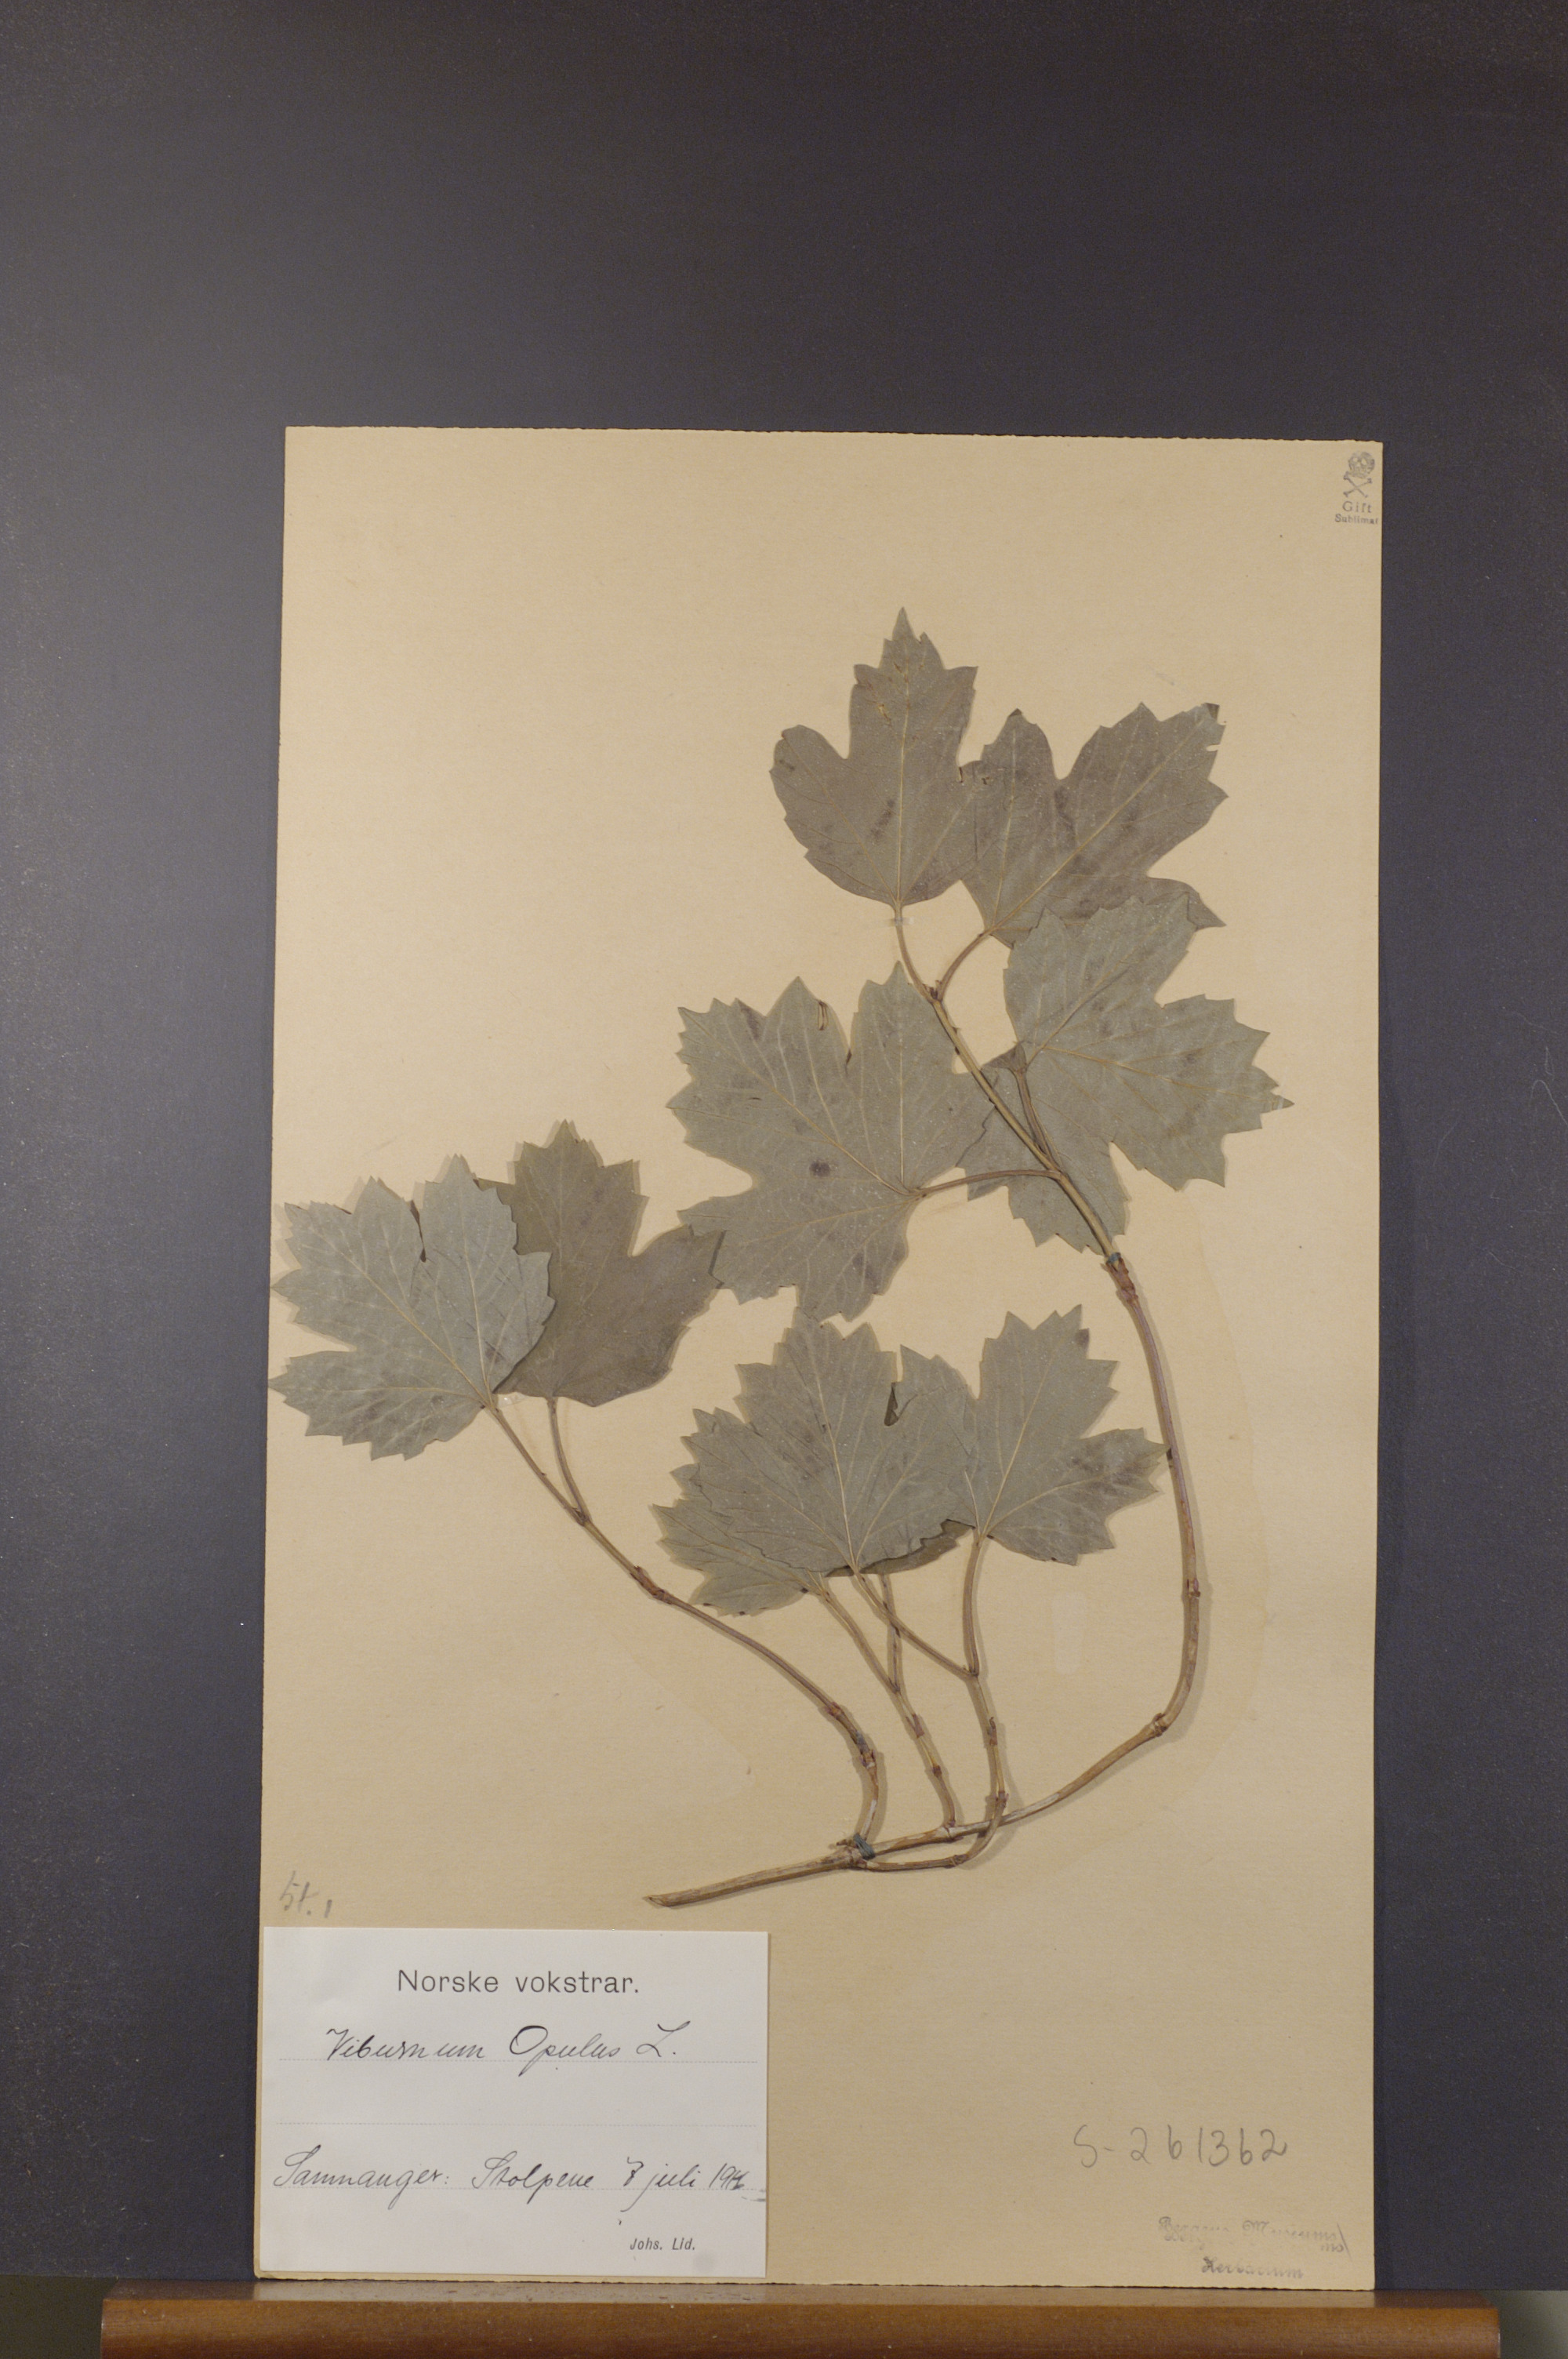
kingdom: Plantae
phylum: Tracheophyta
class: Magnoliopsida
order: Dipsacales
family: Viburnaceae
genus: Viburnum
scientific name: Viburnum opulus
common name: Guelder-rose
